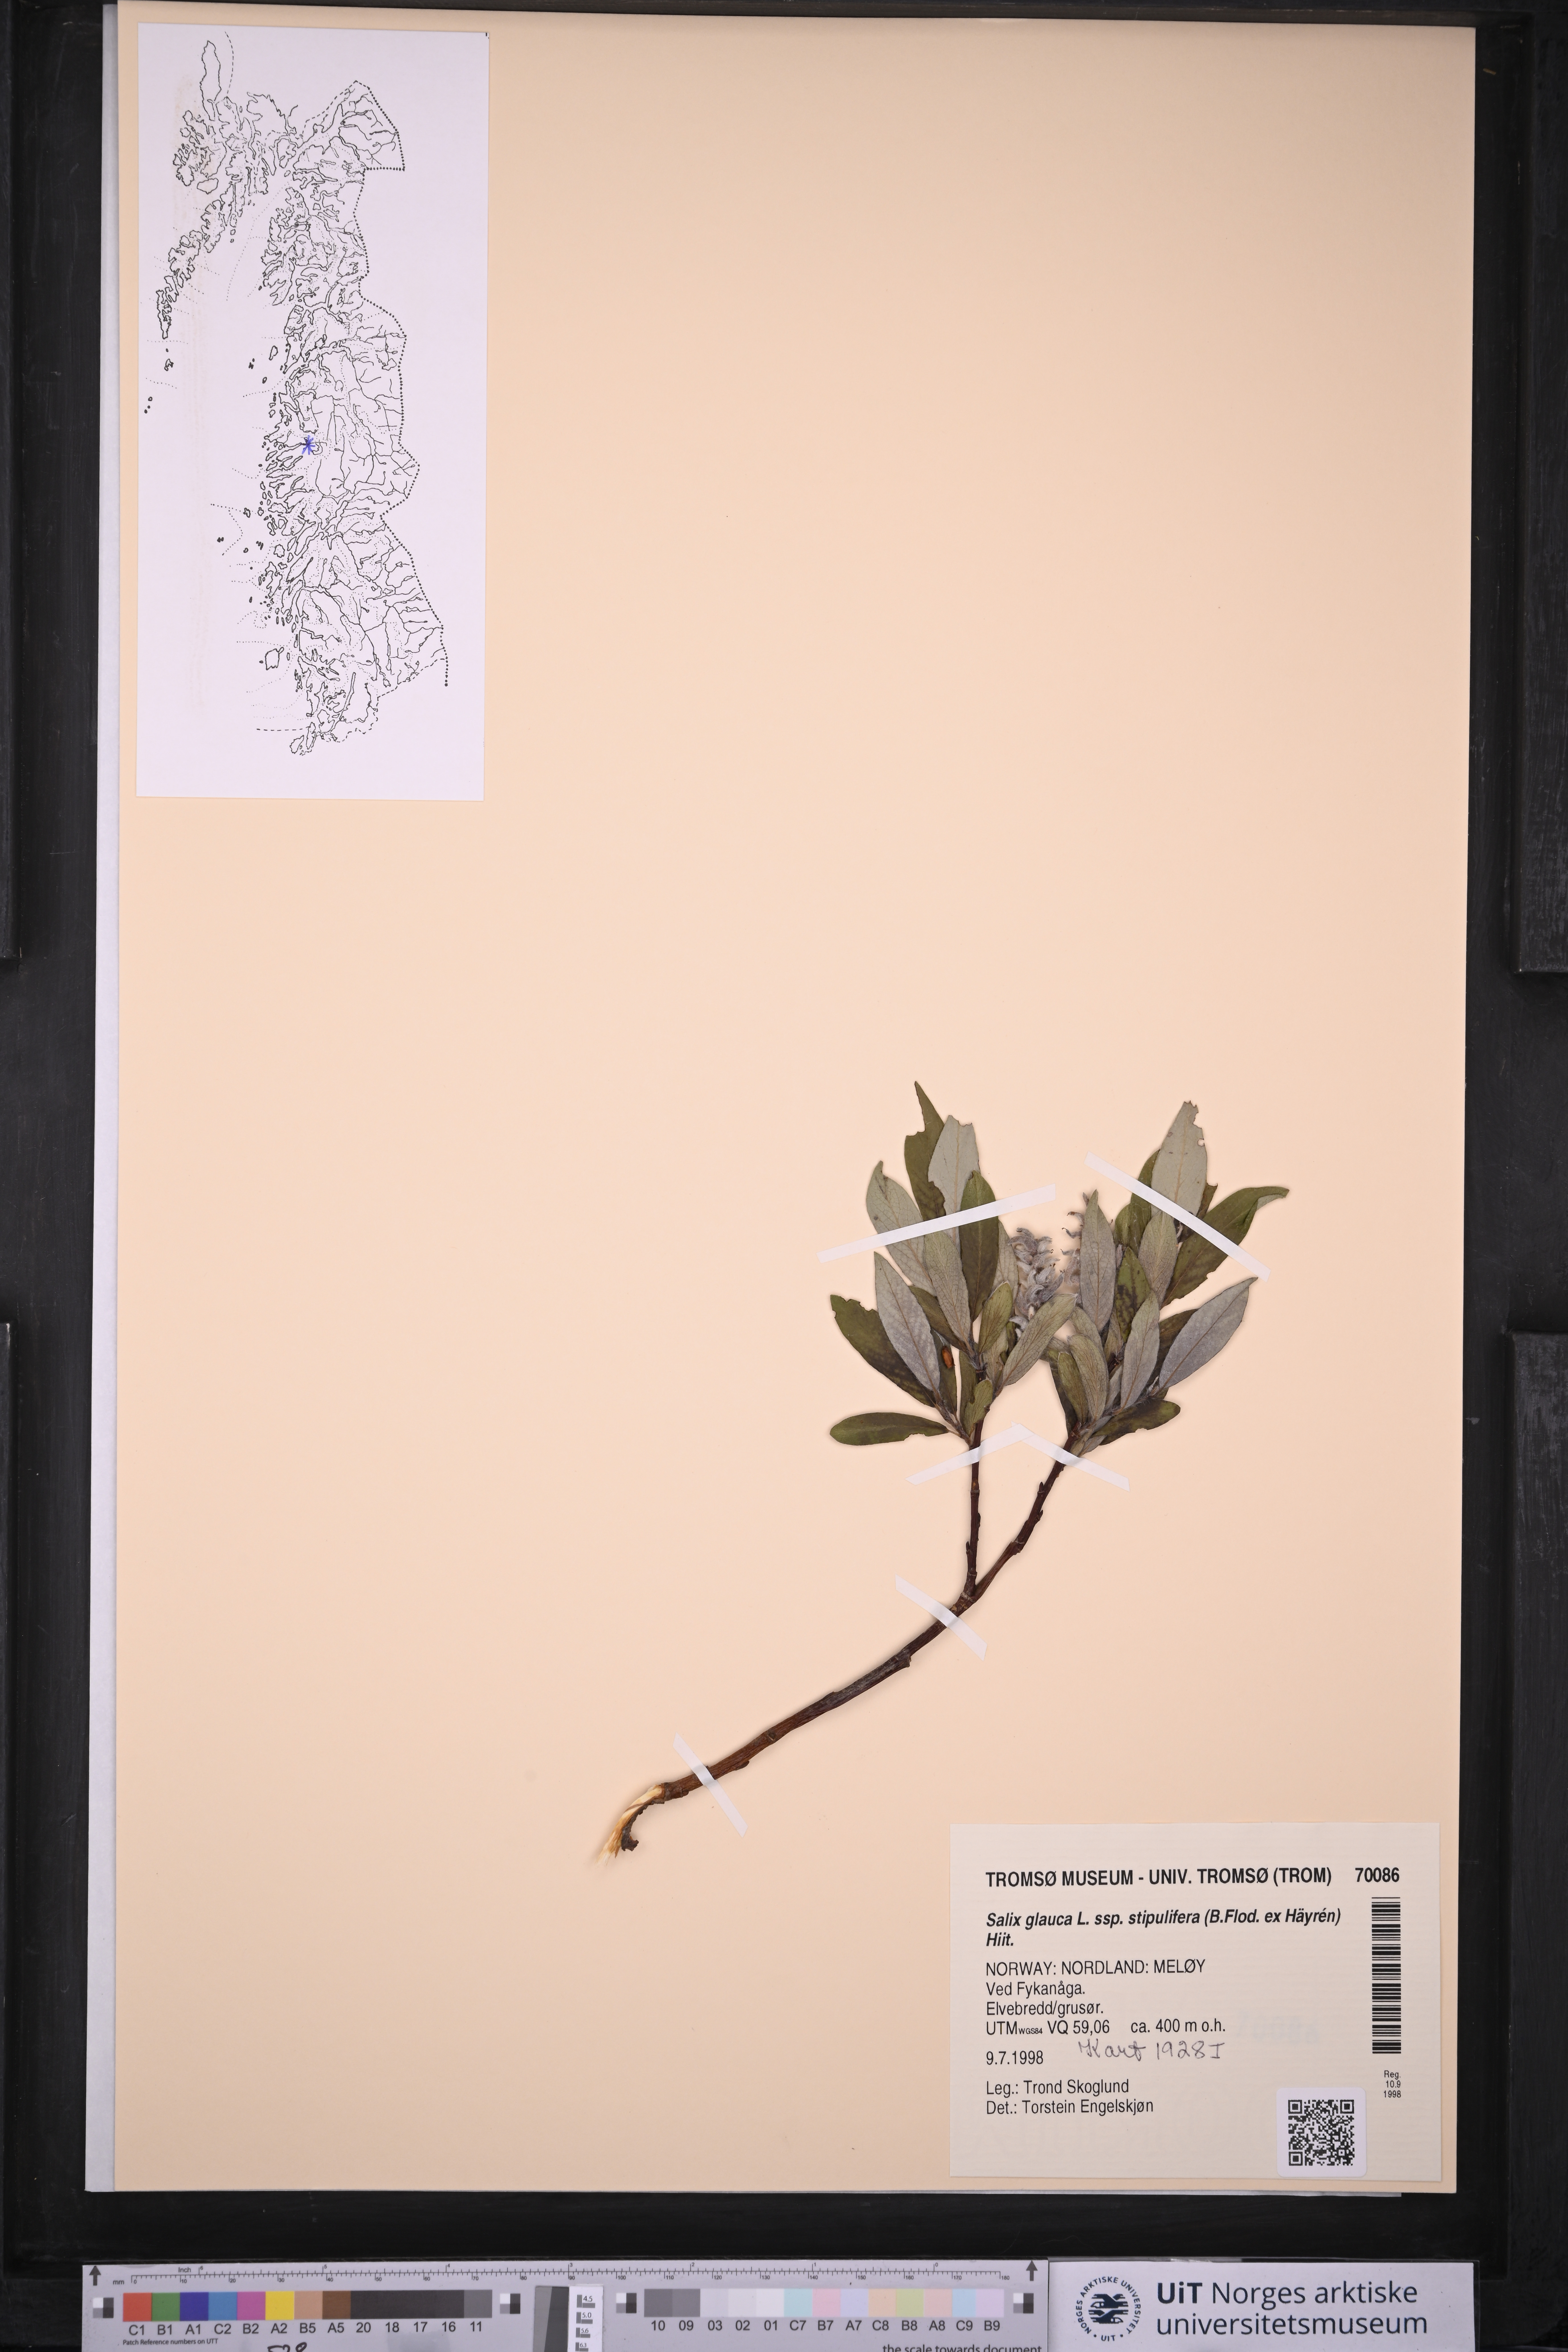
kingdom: Plantae
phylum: Tracheophyta
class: Magnoliopsida
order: Malpighiales
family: Salicaceae
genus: Salix
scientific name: Salix glauca
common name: Glaucous willow
